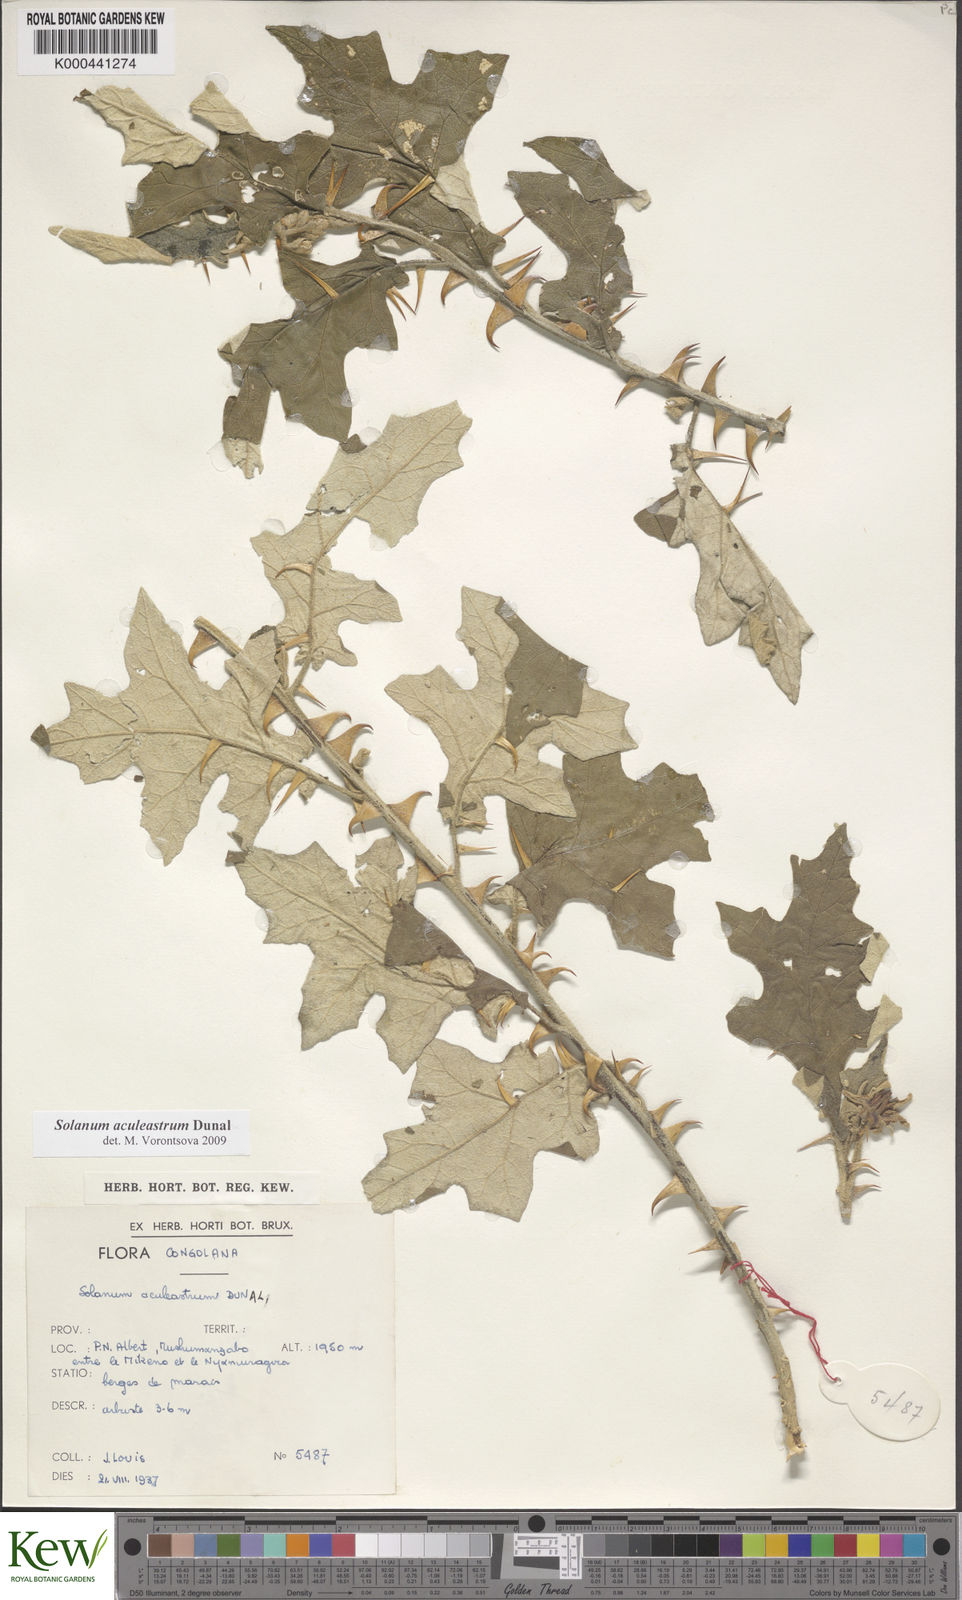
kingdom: Plantae
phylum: Tracheophyta
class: Magnoliopsida
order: Solanales
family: Solanaceae
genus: Solanum
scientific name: Solanum aculeastrum
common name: Goat bitter-apple
